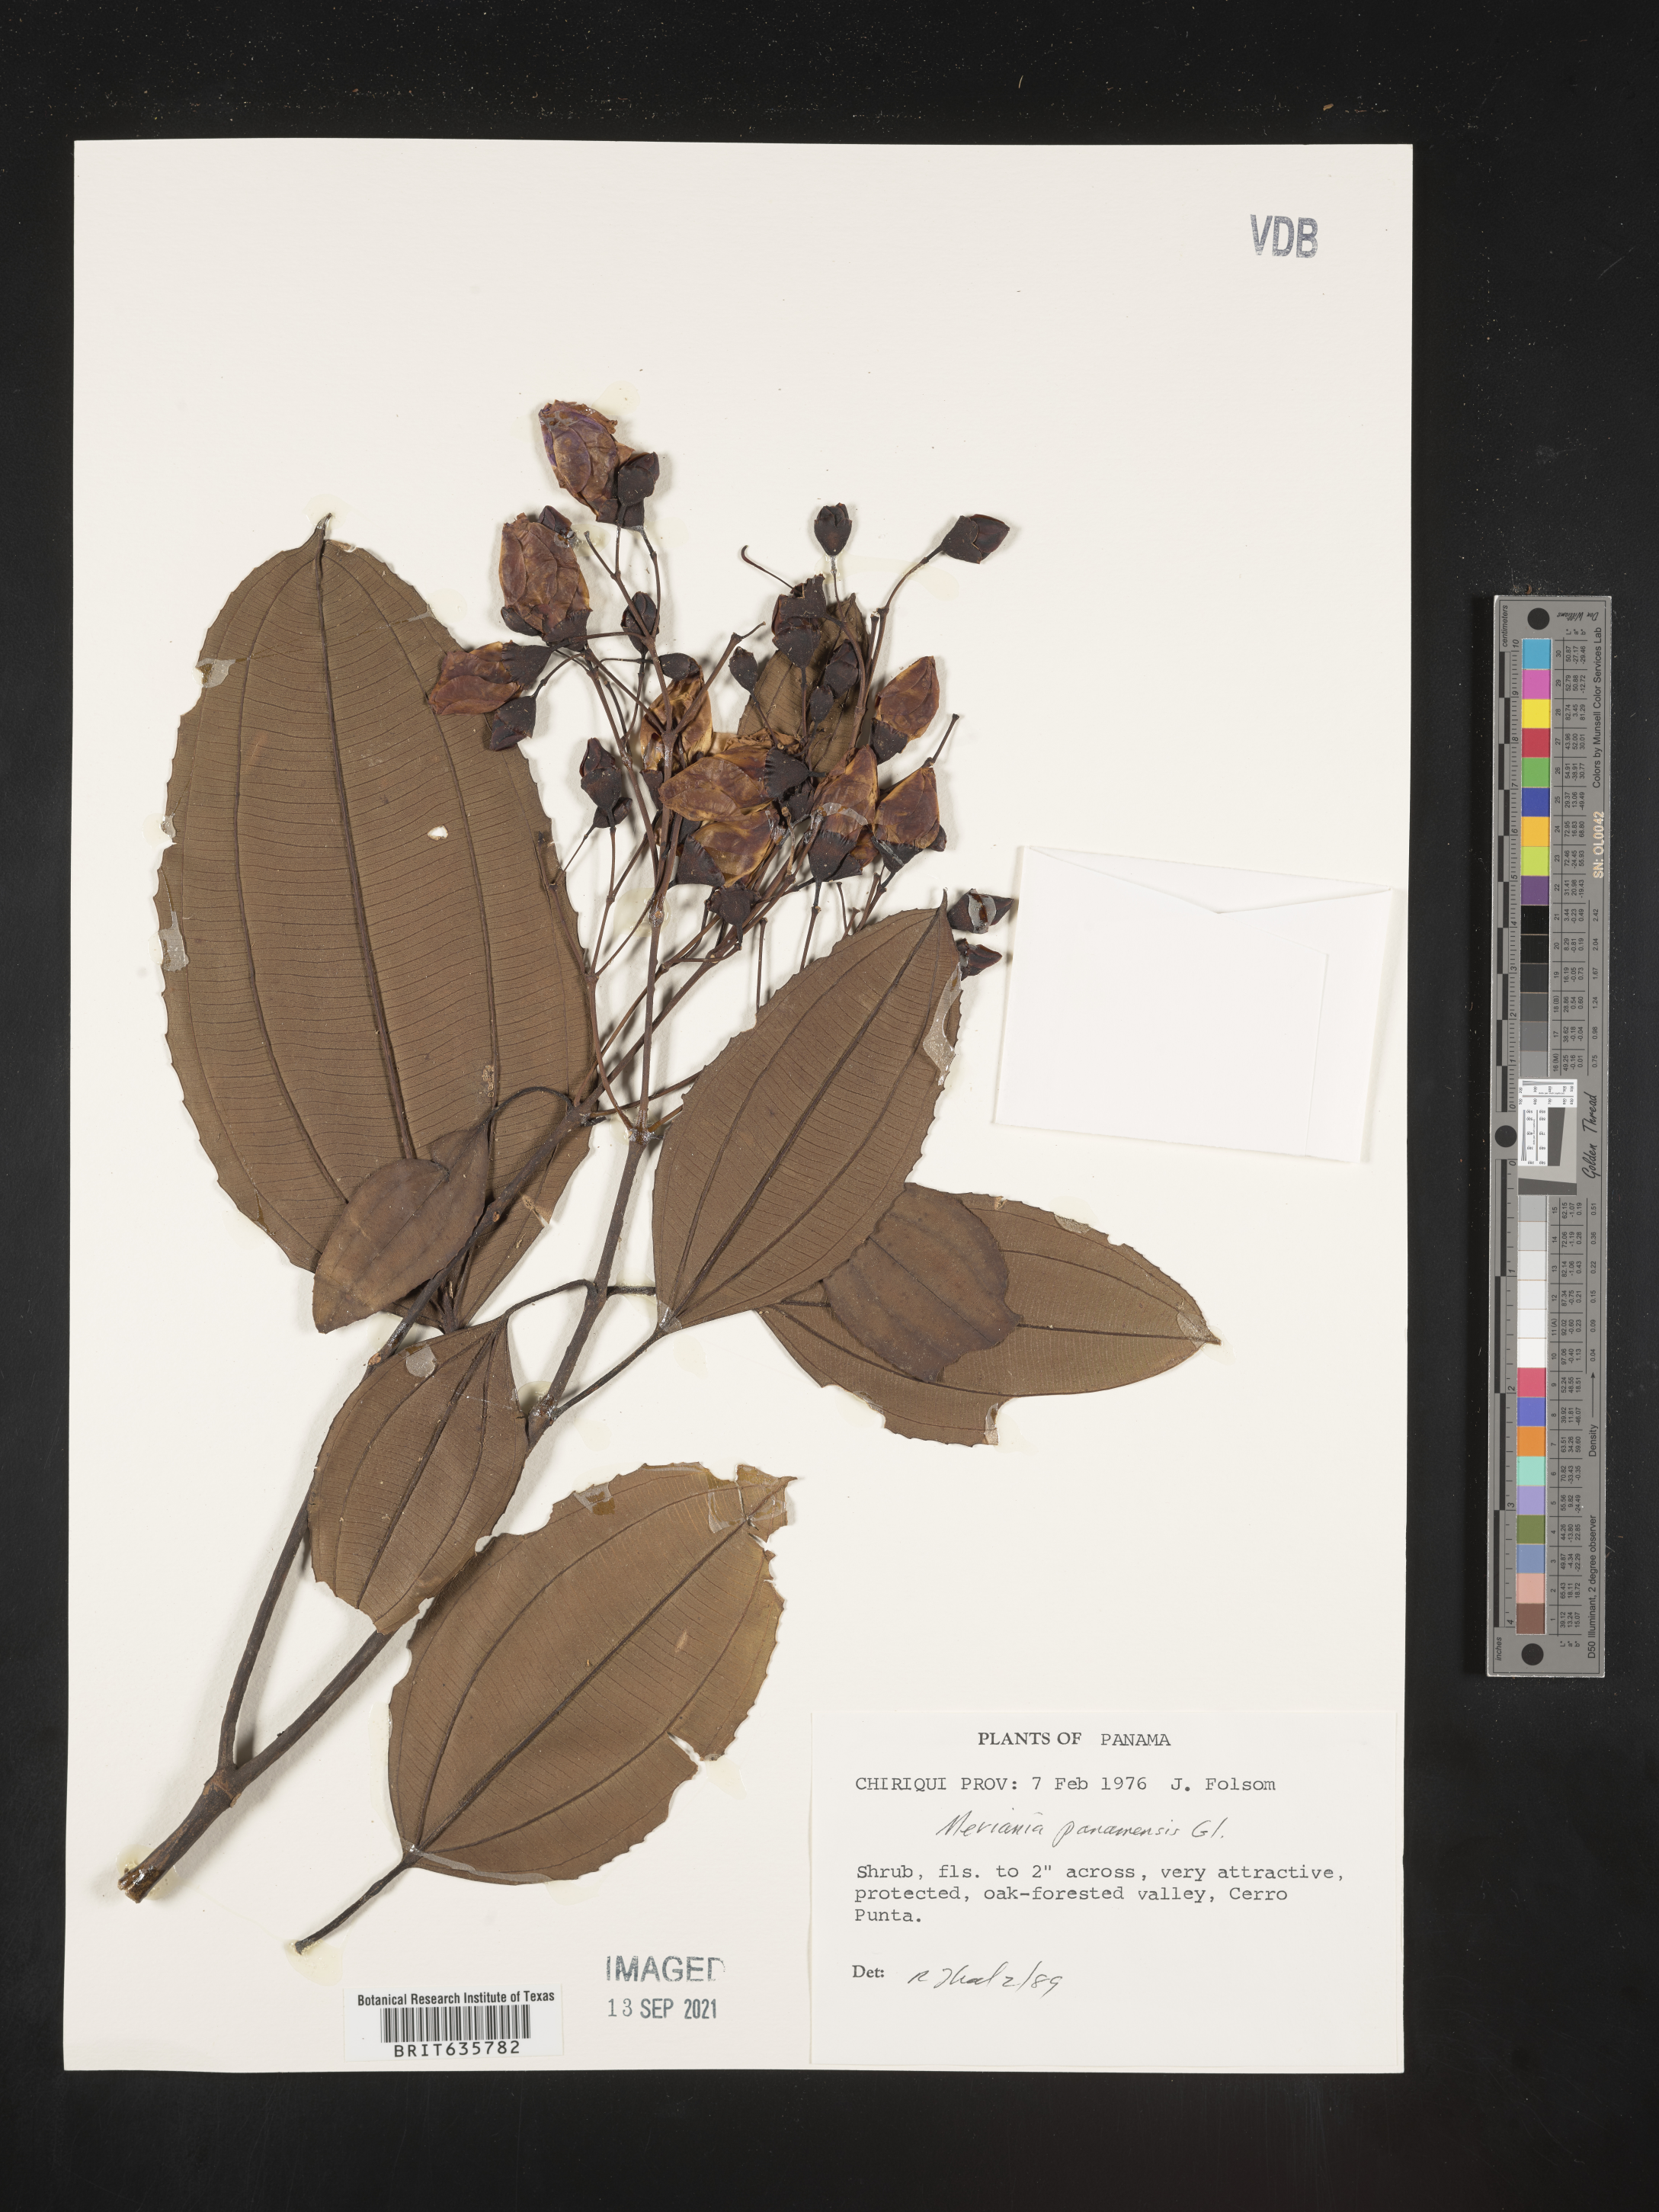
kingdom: Plantae
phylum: Tracheophyta
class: Magnoliopsida
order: Myrtales
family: Melastomataceae
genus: Meriania
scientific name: Meriania
